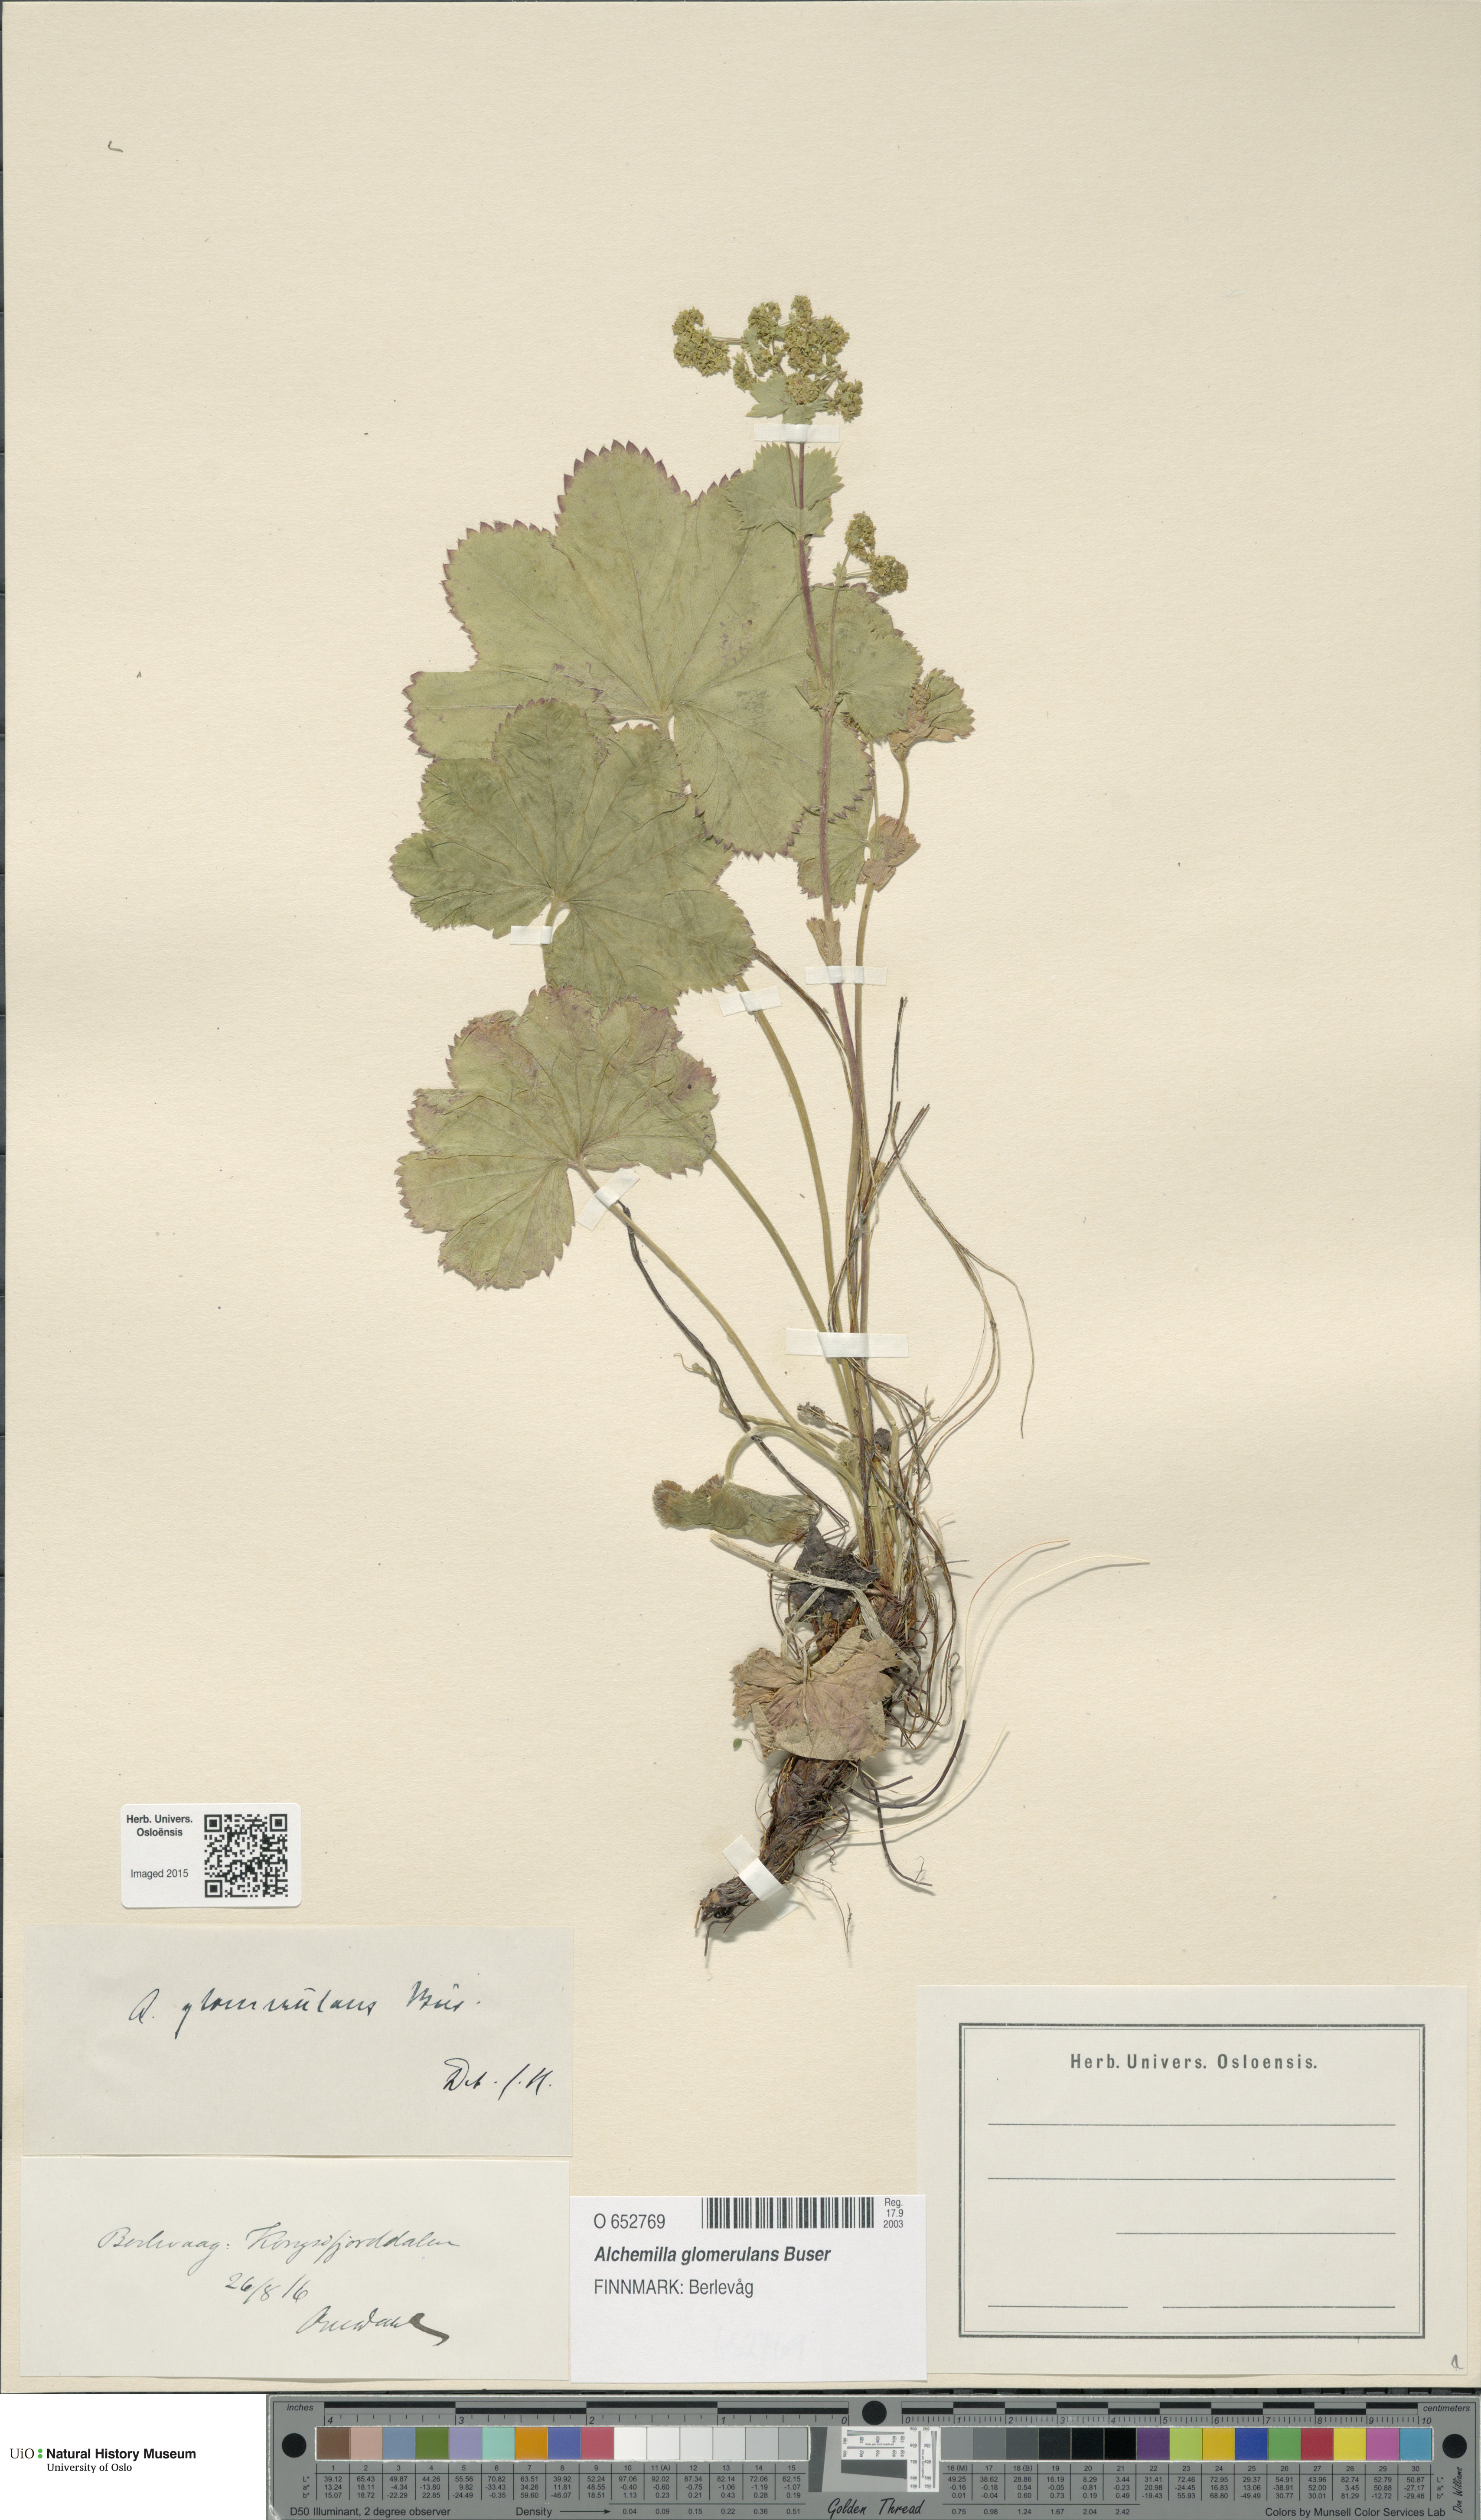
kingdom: Plantae
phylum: Tracheophyta
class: Magnoliopsida
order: Rosales
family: Rosaceae
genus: Alchemilla
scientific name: Alchemilla glomerulans
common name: Clustered lady's mantle
